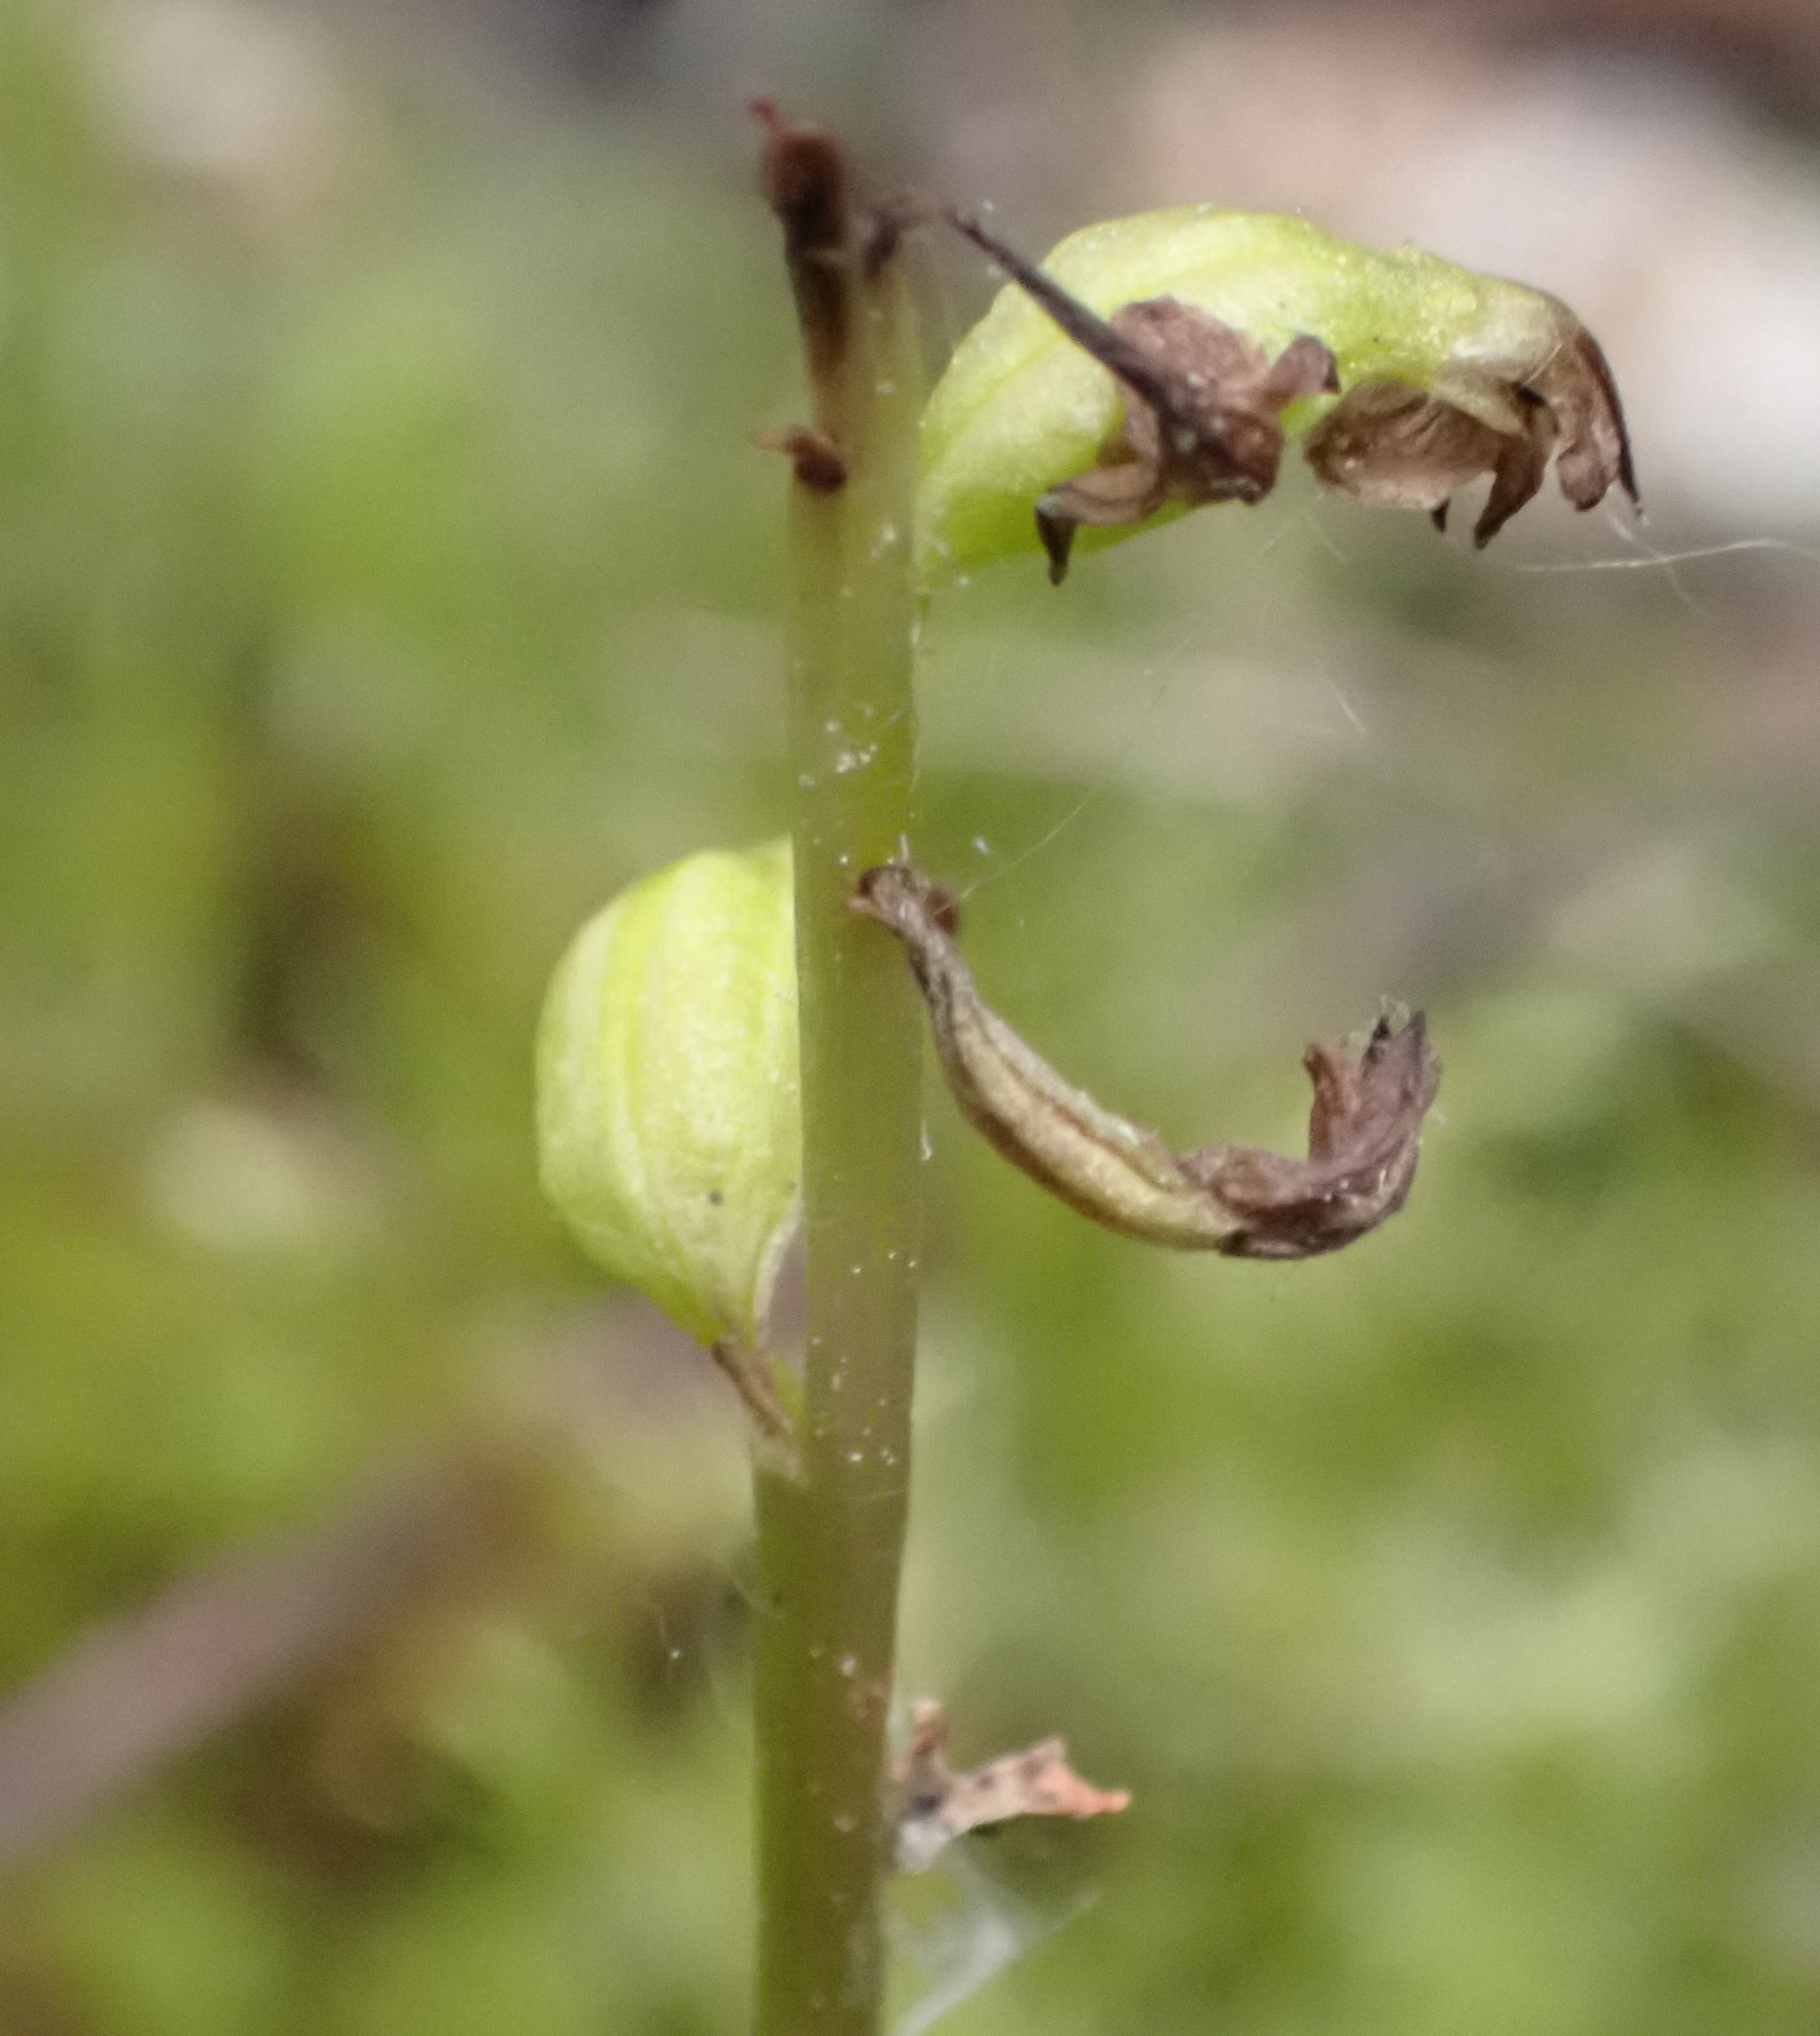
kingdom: Plantae
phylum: Tracheophyta
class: Liliopsida
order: Asparagales
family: Orchidaceae
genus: Corallorhiza
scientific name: Corallorhiza trifida
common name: Koralrod
